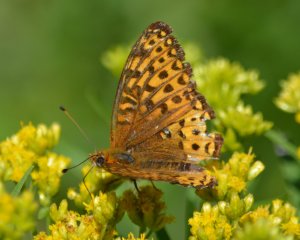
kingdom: Animalia
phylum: Arthropoda
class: Insecta
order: Lepidoptera
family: Nymphalidae
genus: Speyeria
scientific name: Speyeria atlantis
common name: Atlantis Fritillary
